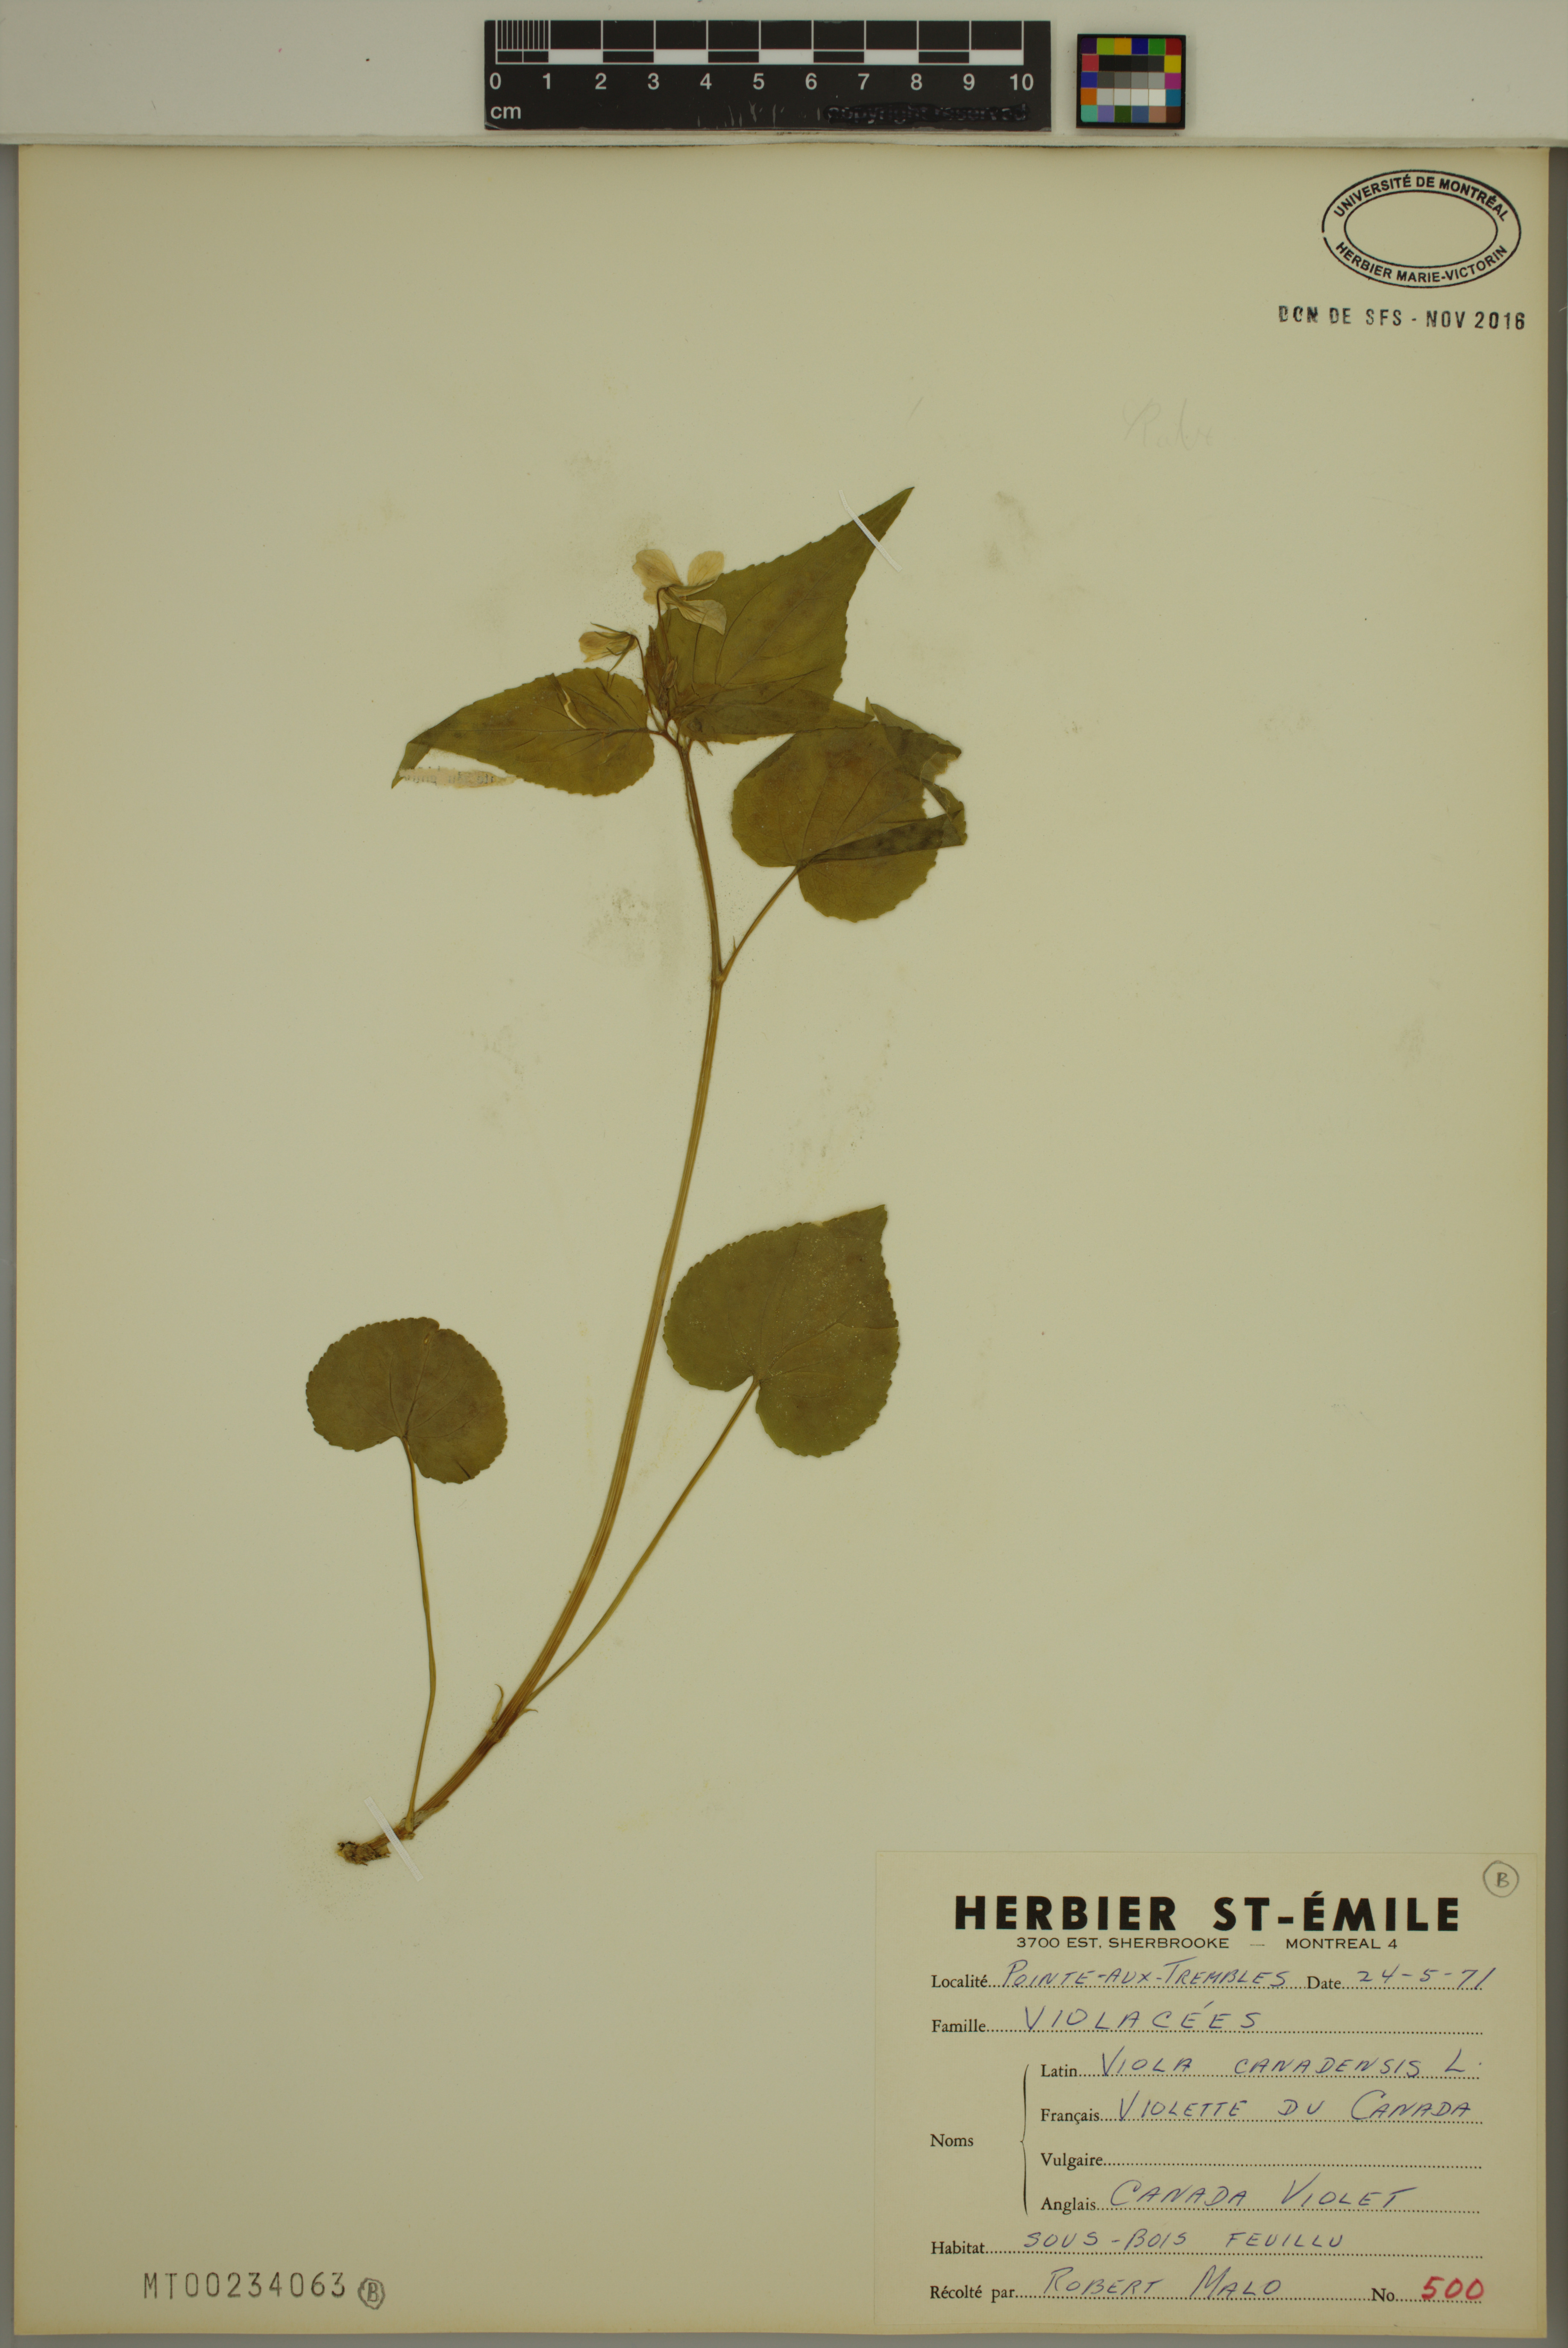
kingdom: Plantae
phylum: Tracheophyta
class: Magnoliopsida
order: Malpighiales
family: Violaceae
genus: Viola
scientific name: Viola canadensis
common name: Canada violet
